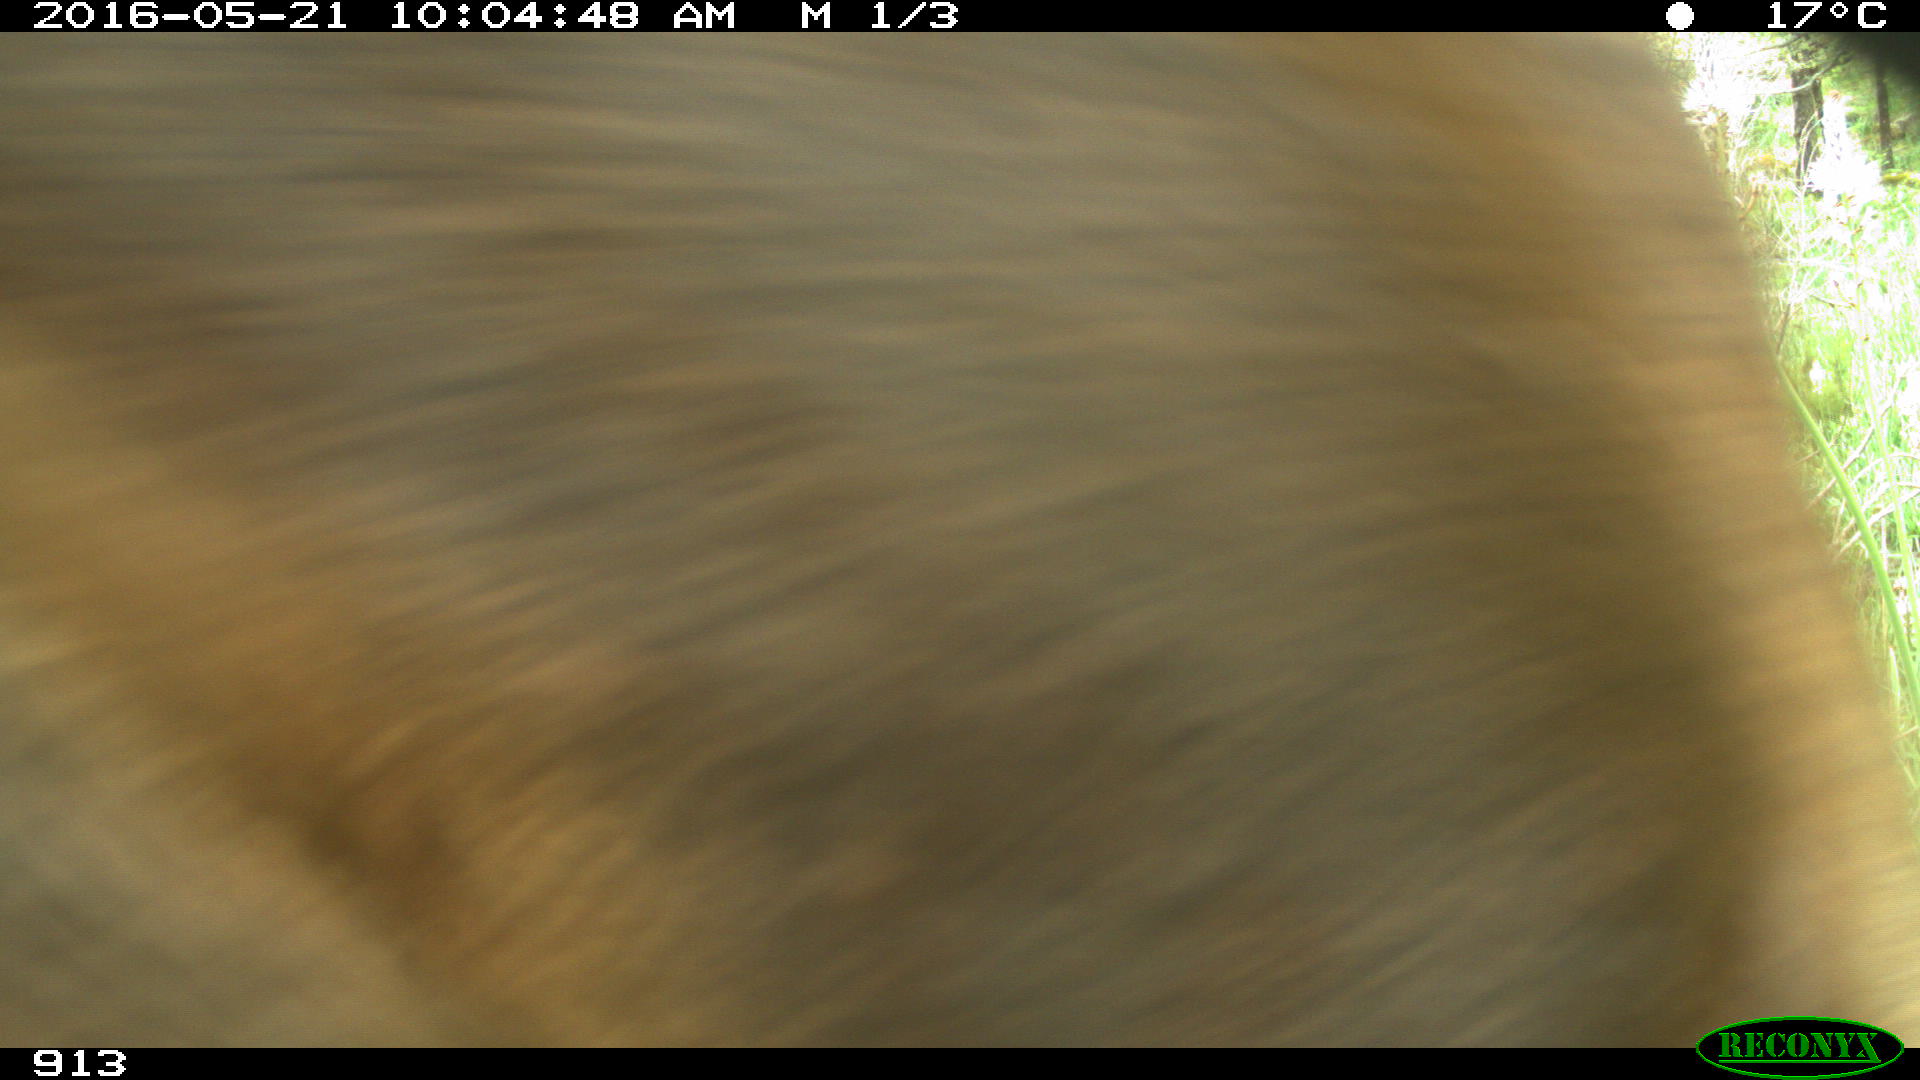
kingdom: Animalia
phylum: Chordata
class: Mammalia
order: Perissodactyla
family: Equidae
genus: Equus
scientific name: Equus caballus
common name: Horse
